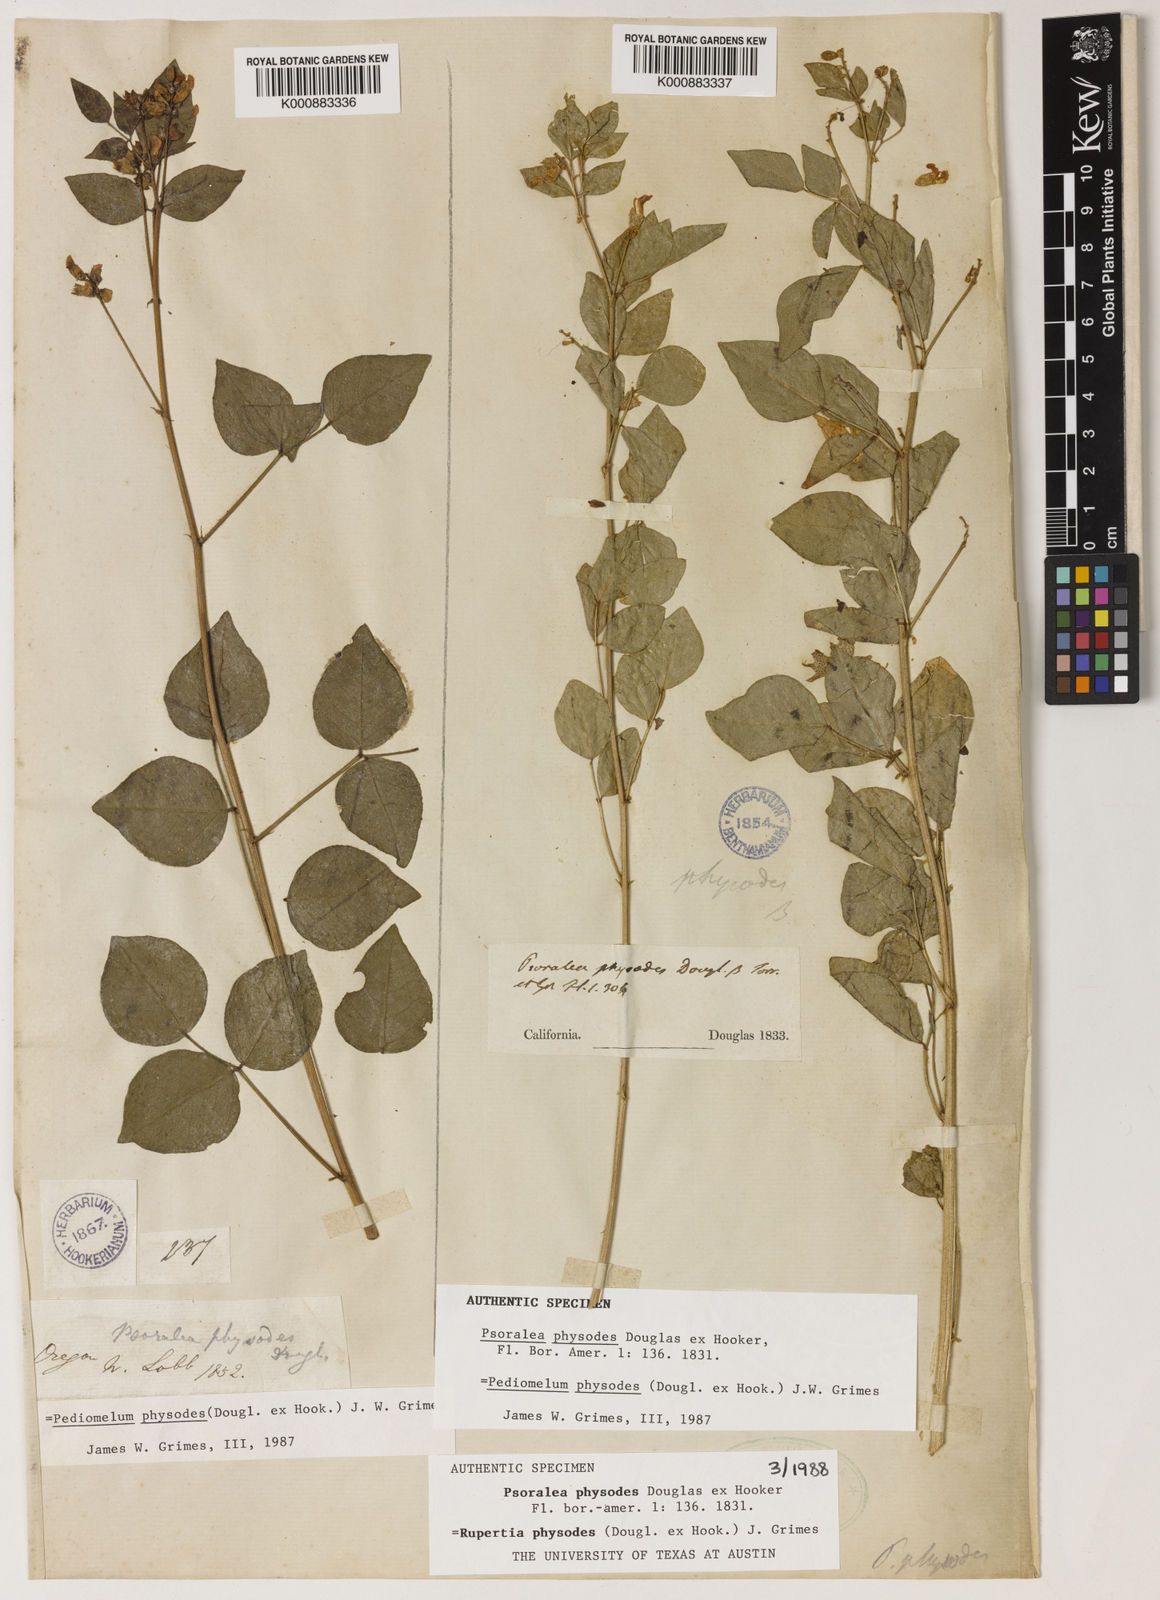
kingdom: Plantae
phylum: Tracheophyta
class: Magnoliopsida
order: Fabales
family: Fabaceae
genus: Rupertia
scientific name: Rupertia physodes
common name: California-tea
